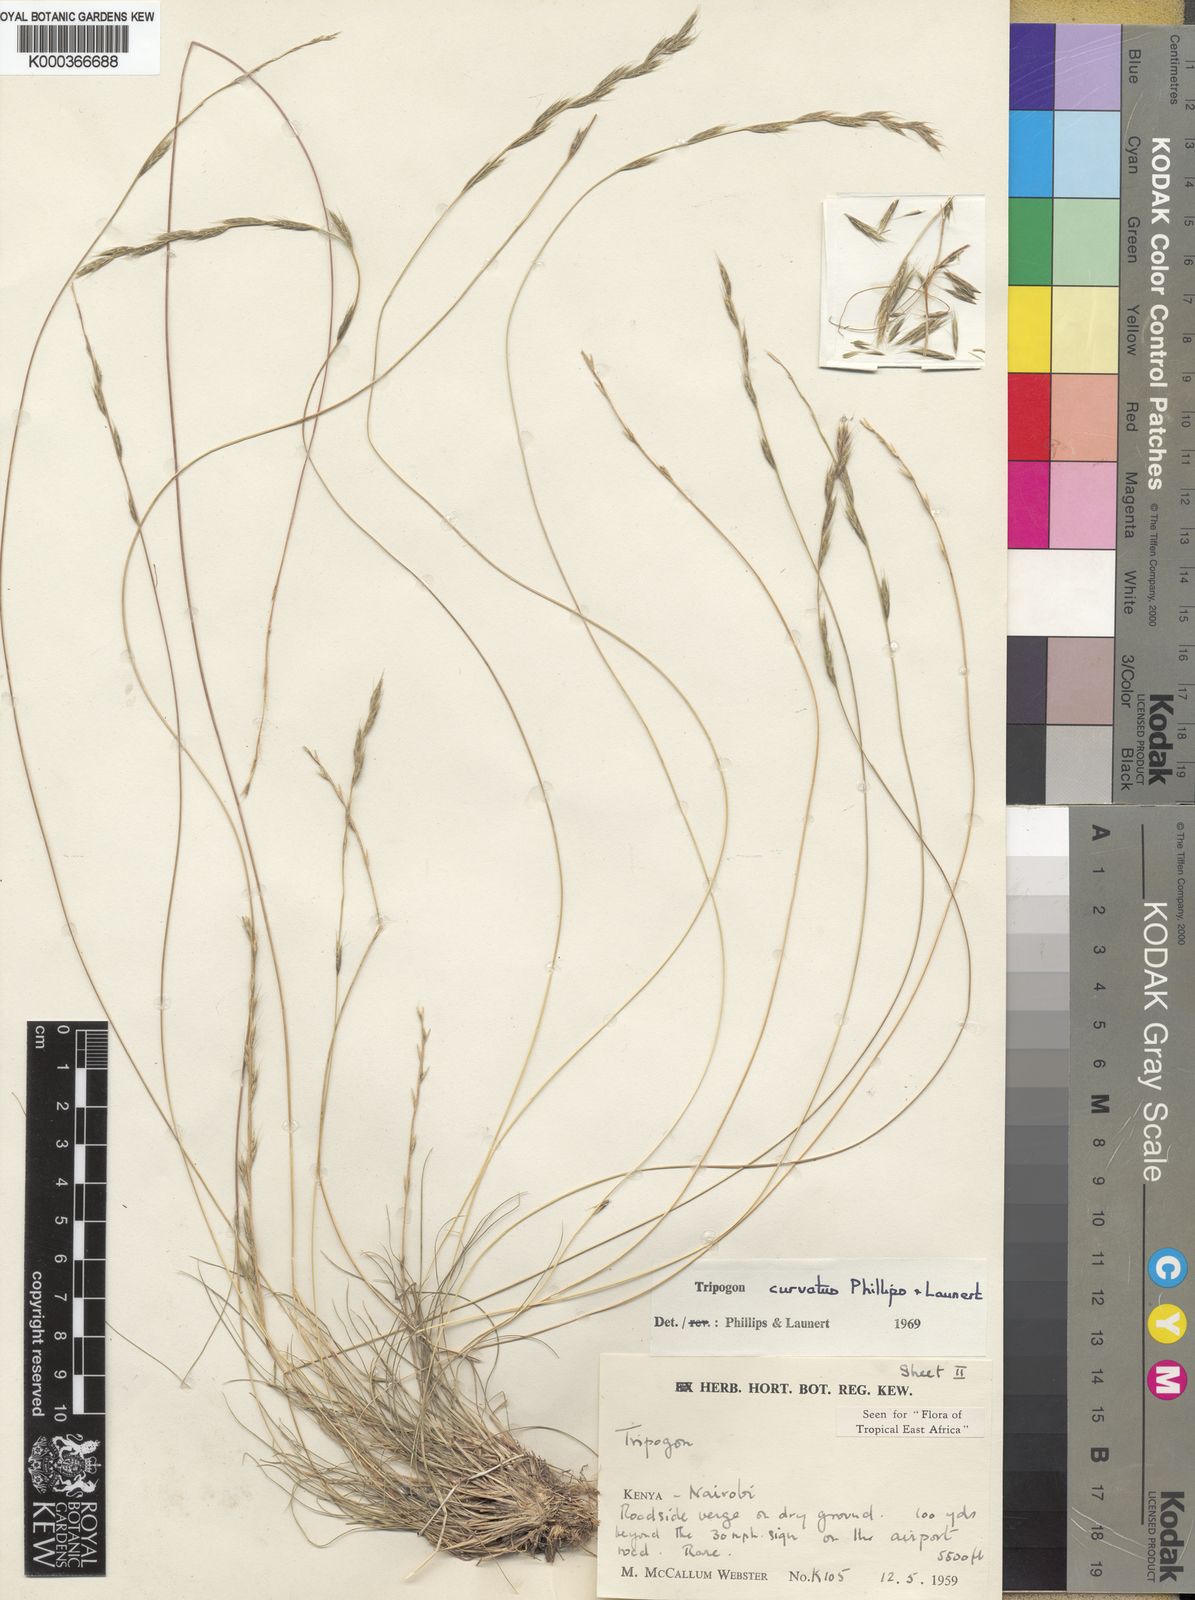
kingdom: Plantae
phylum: Tracheophyta
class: Liliopsida
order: Poales
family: Poaceae
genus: Tripogon
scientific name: Tripogon curvatus
